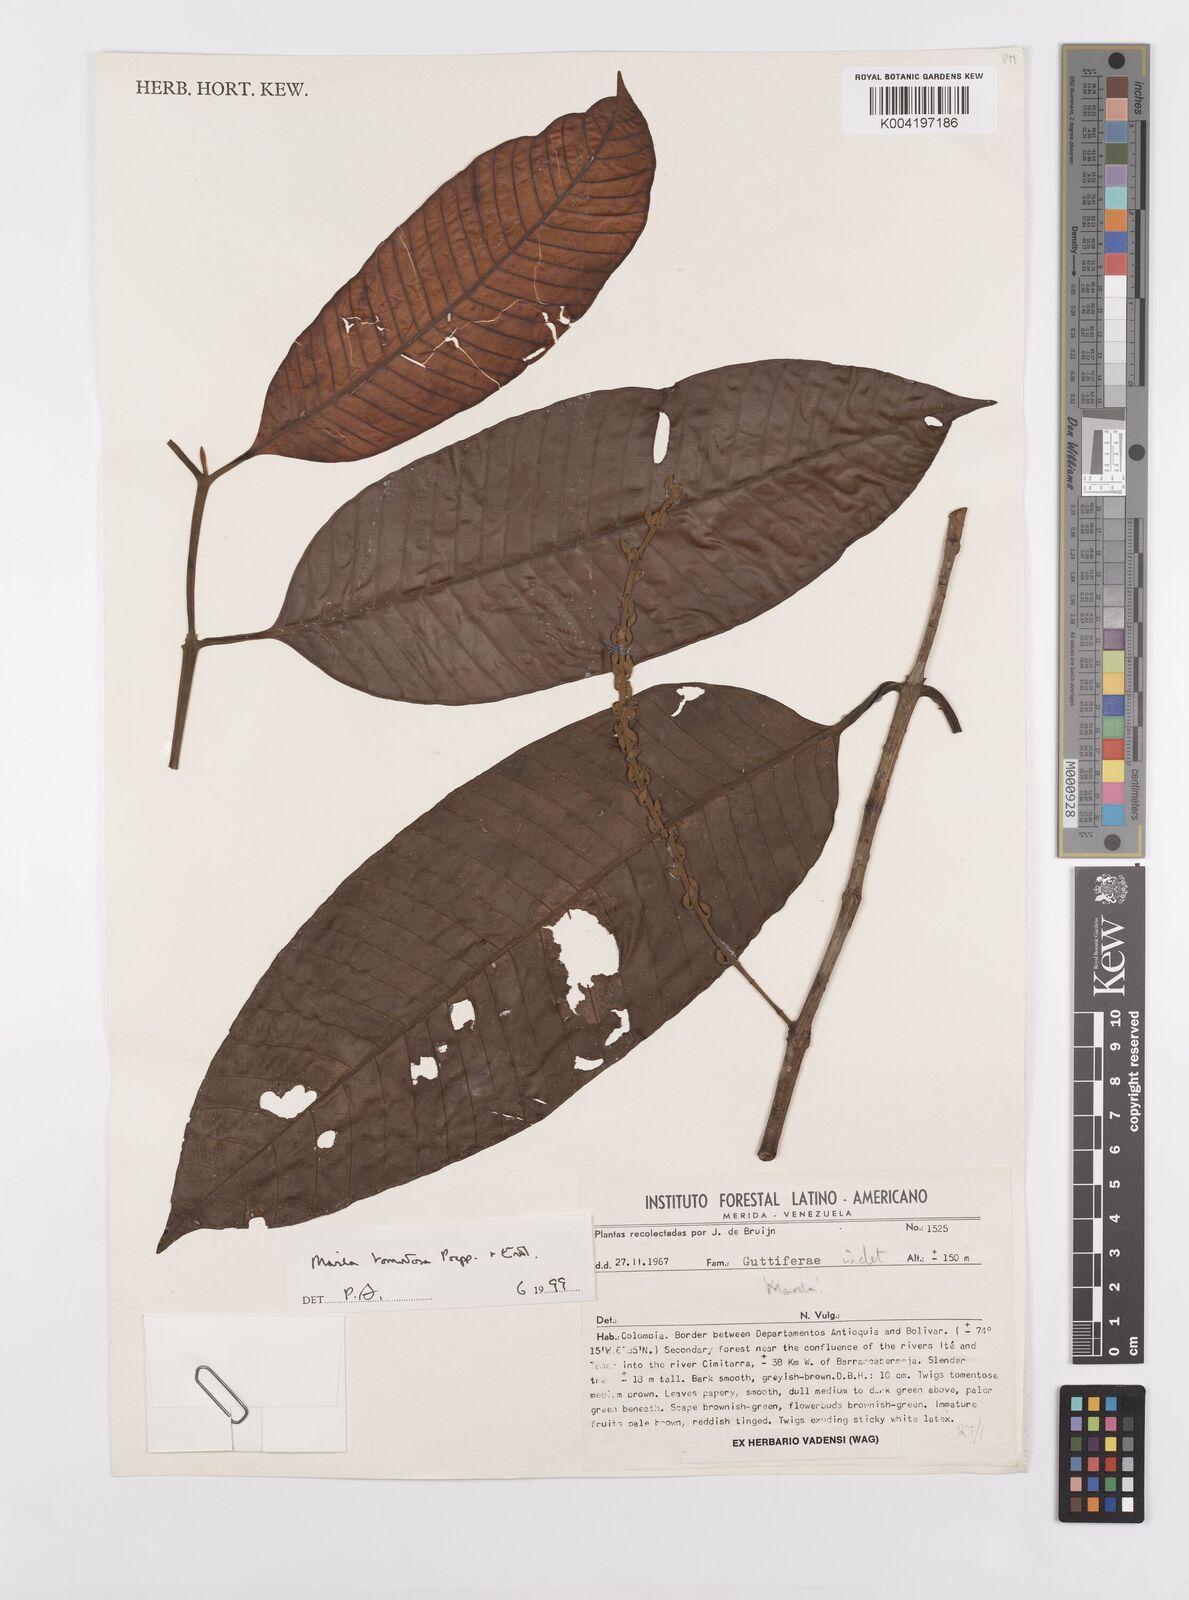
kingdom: Plantae
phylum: Tracheophyta
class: Magnoliopsida
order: Malpighiales
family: Calophyllaceae
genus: Marila
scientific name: Marila tomentosa
